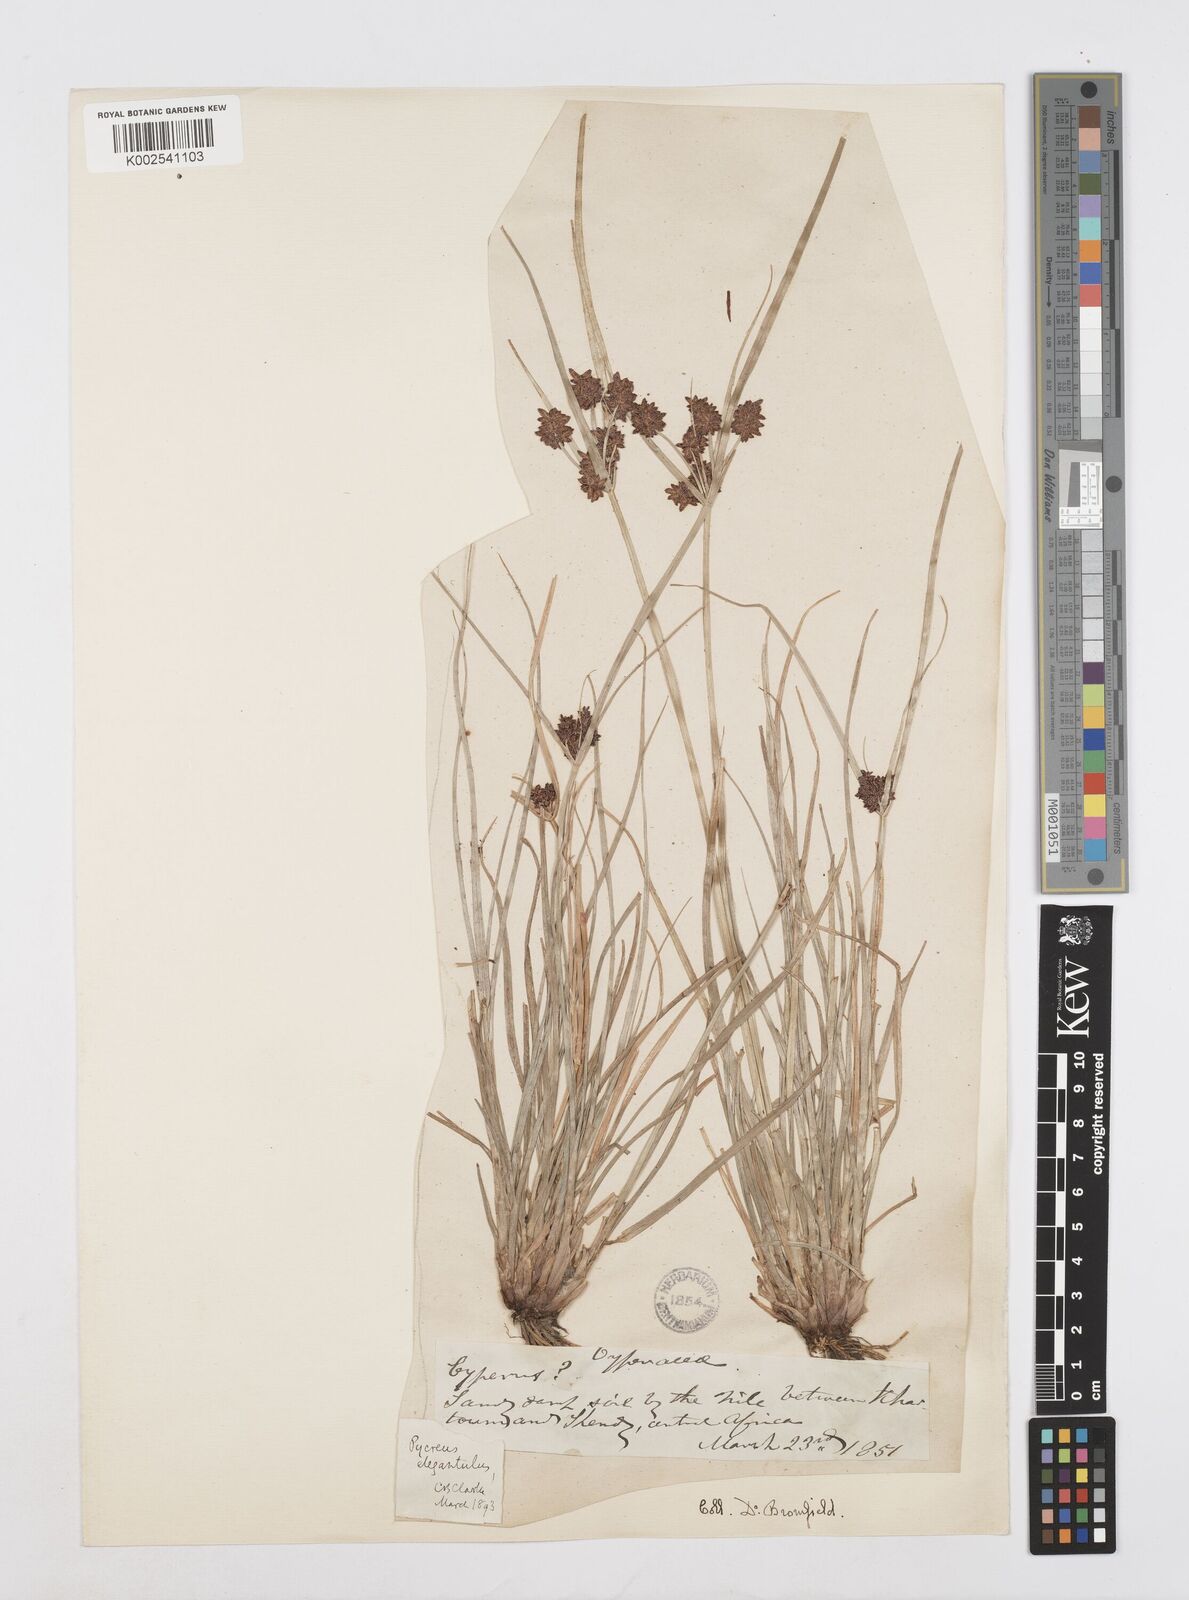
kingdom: Plantae
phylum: Tracheophyta
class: Liliopsida
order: Poales
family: Cyperaceae
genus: Cyperus
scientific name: Cyperus elegantulus
